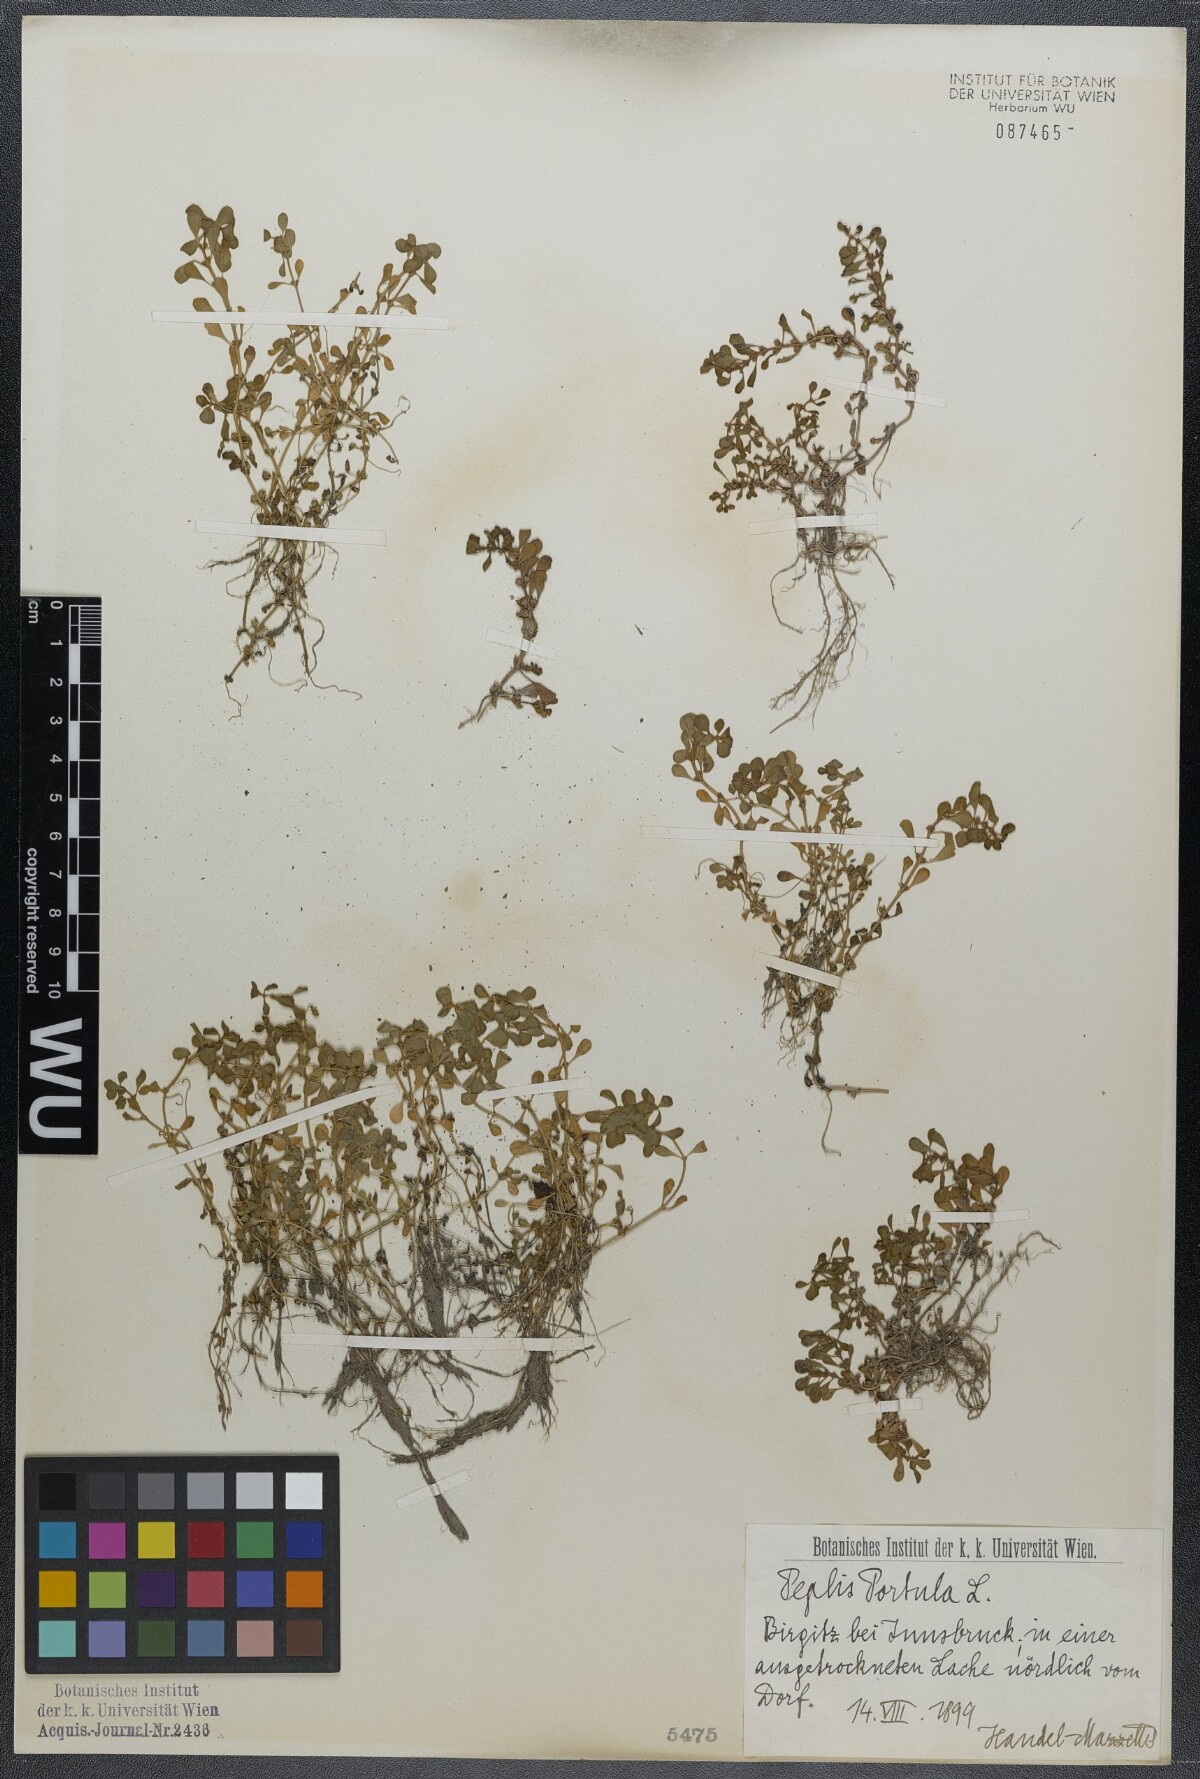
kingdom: Plantae
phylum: Tracheophyta
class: Magnoliopsida
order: Myrtales
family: Lythraceae
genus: Lythrum
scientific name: Lythrum portula
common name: Water purslane
